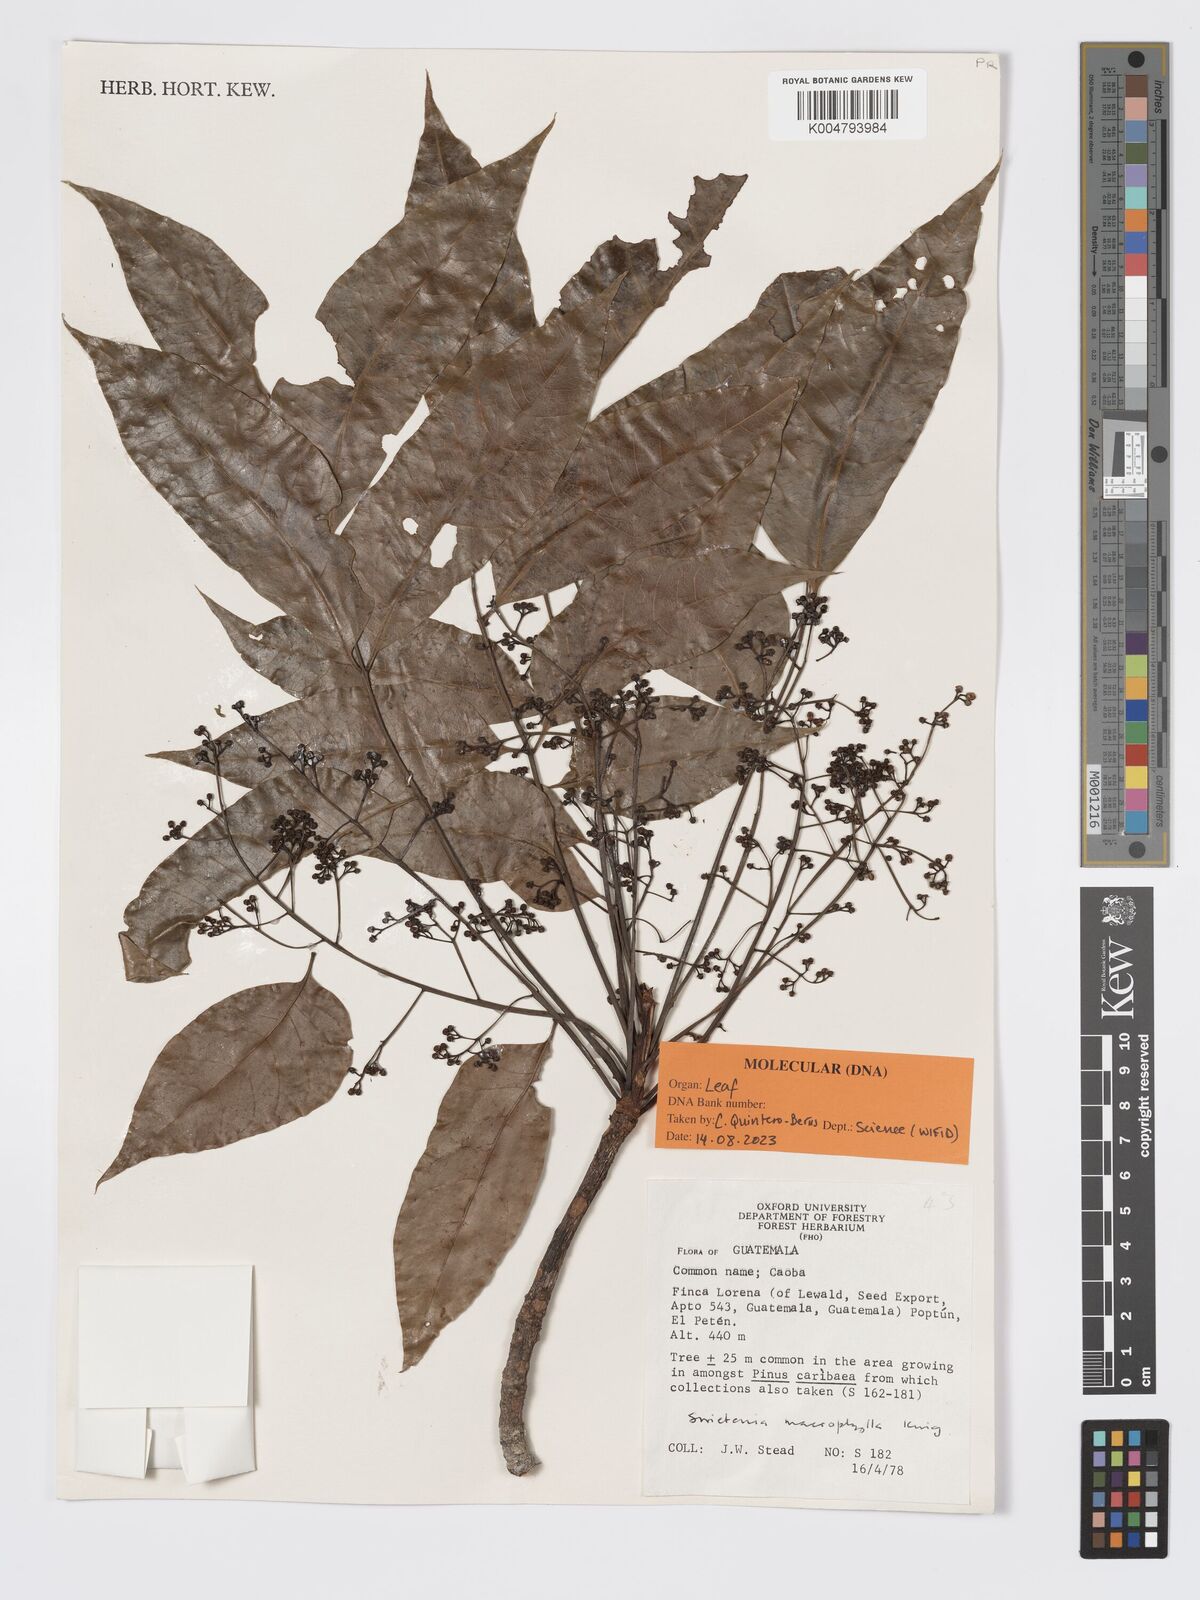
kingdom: Plantae
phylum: Tracheophyta
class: Magnoliopsida
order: Sapindales
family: Meliaceae
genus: Swietenia
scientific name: Swietenia macrophylla
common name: Honduras mahogany
